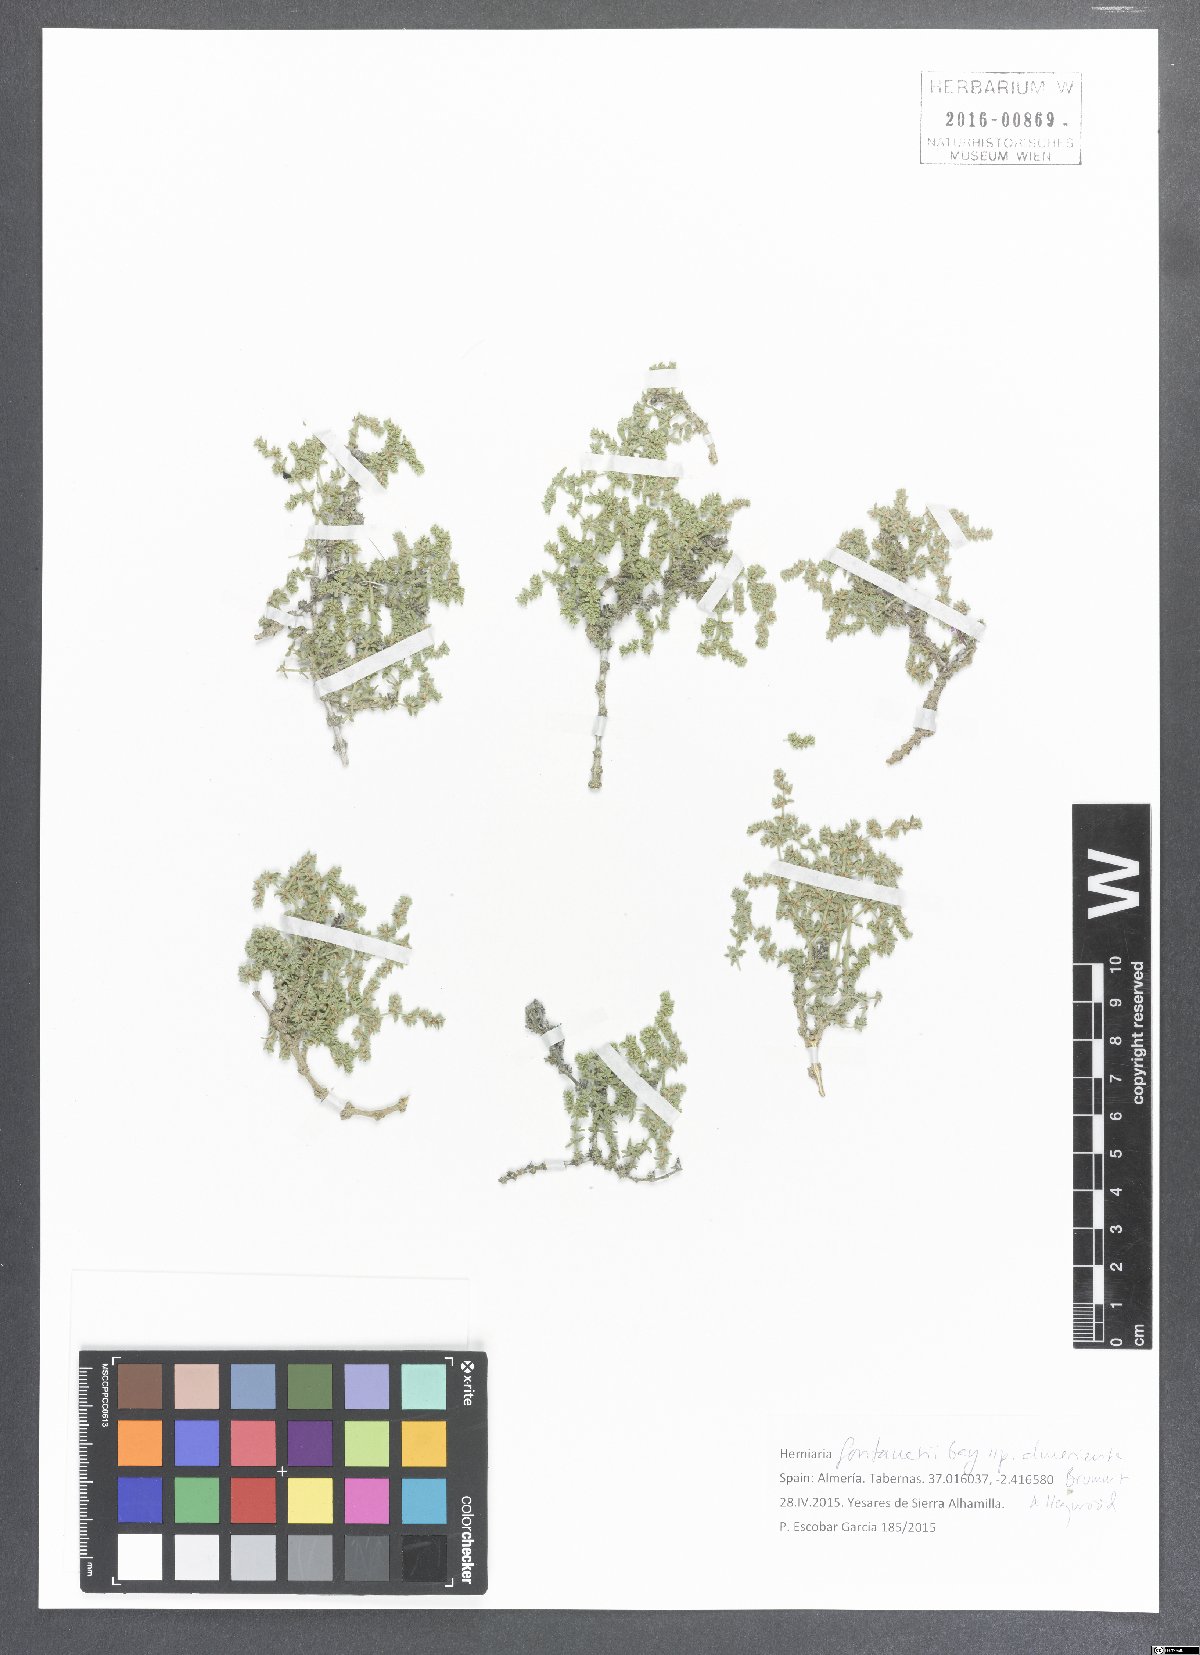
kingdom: Plantae
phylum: Tracheophyta
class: Magnoliopsida
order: Caryophyllales
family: Caryophyllaceae
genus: Herniaria
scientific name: Herniaria fontanesii
